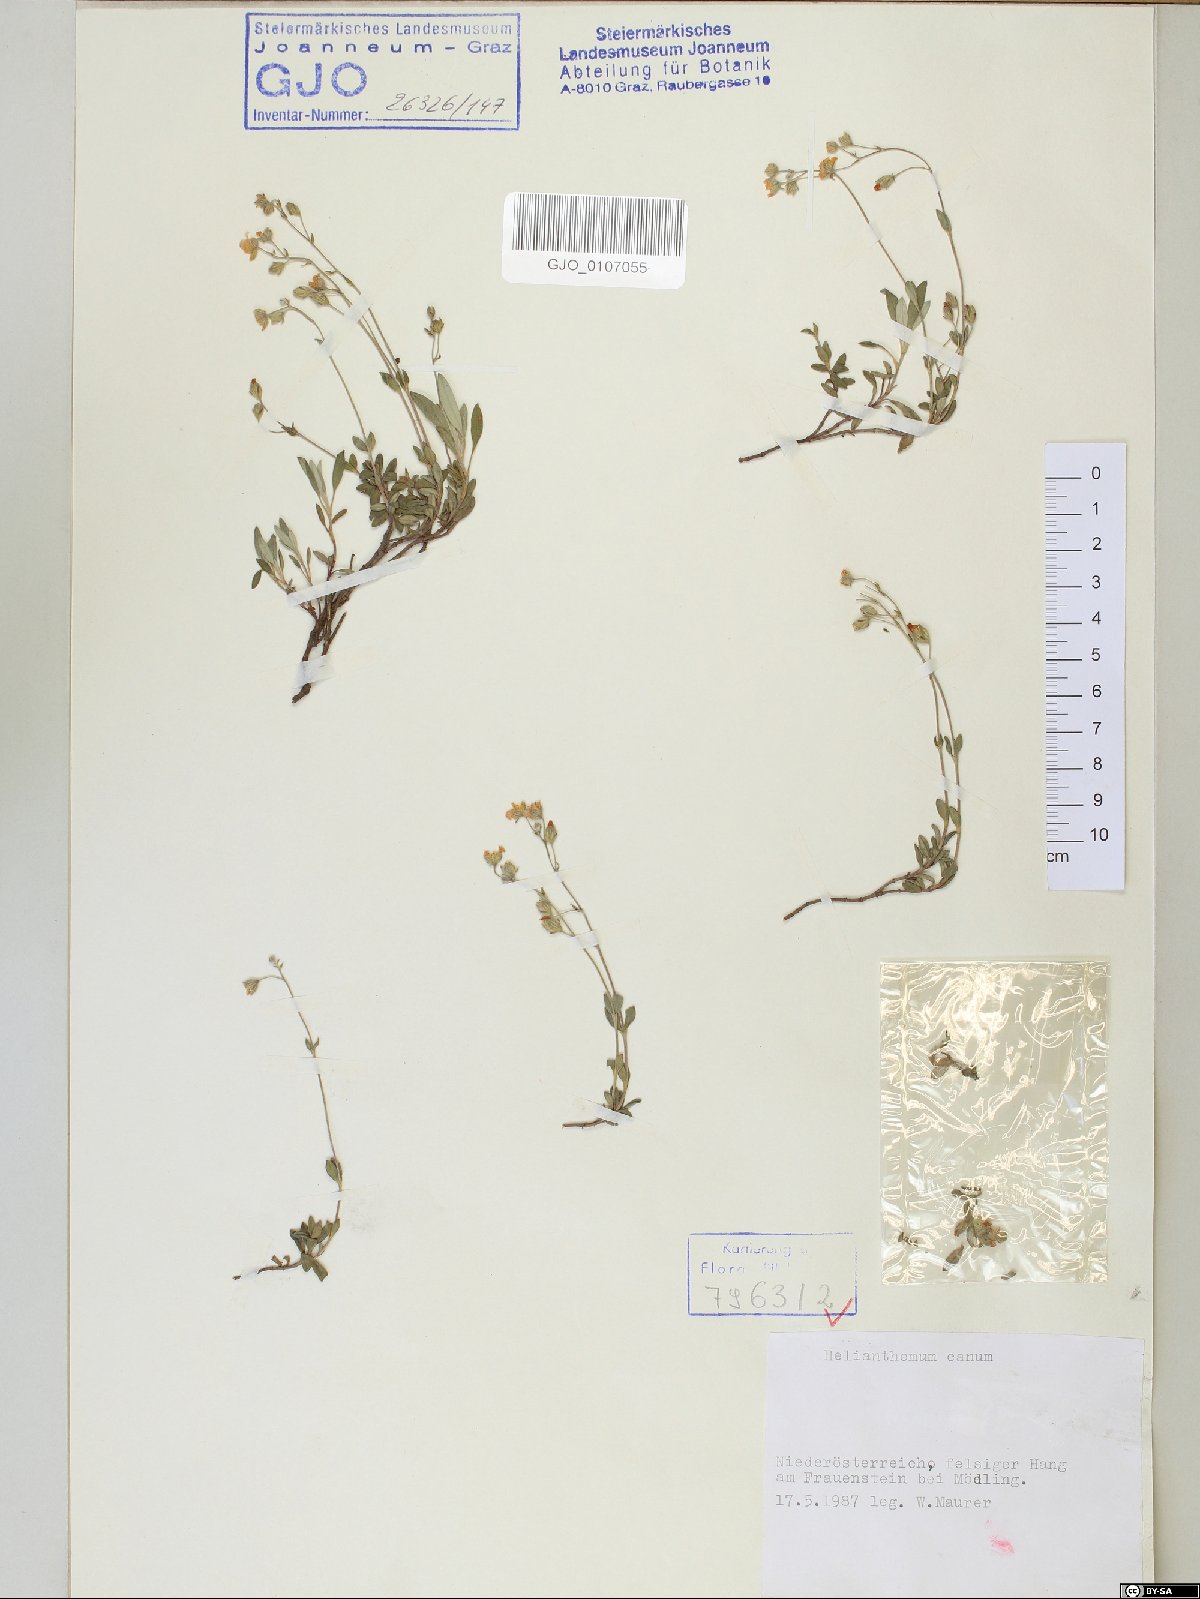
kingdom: Plantae
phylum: Tracheophyta
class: Magnoliopsida
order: Malvales
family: Cistaceae
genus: Helianthemum
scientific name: Helianthemum canum
